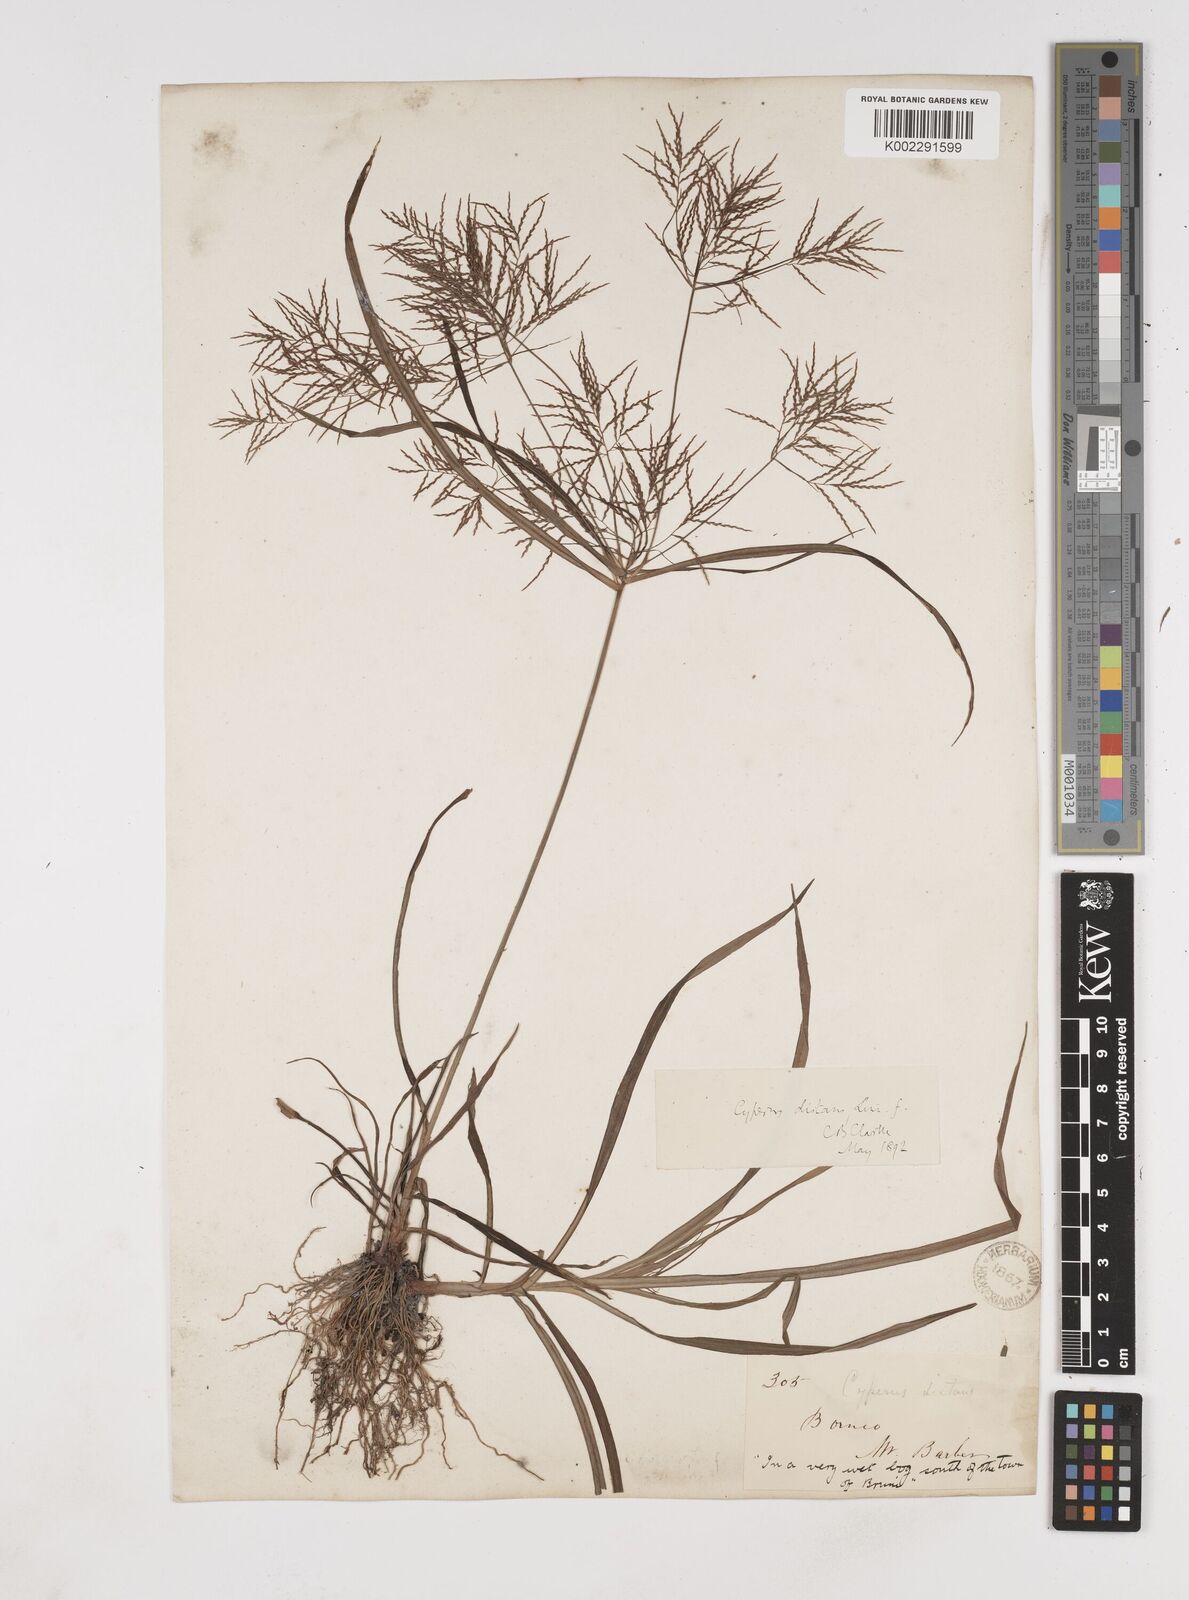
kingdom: Plantae
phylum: Tracheophyta
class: Liliopsida
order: Poales
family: Cyperaceae
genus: Cyperus
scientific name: Cyperus distans
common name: Slender cyperus
